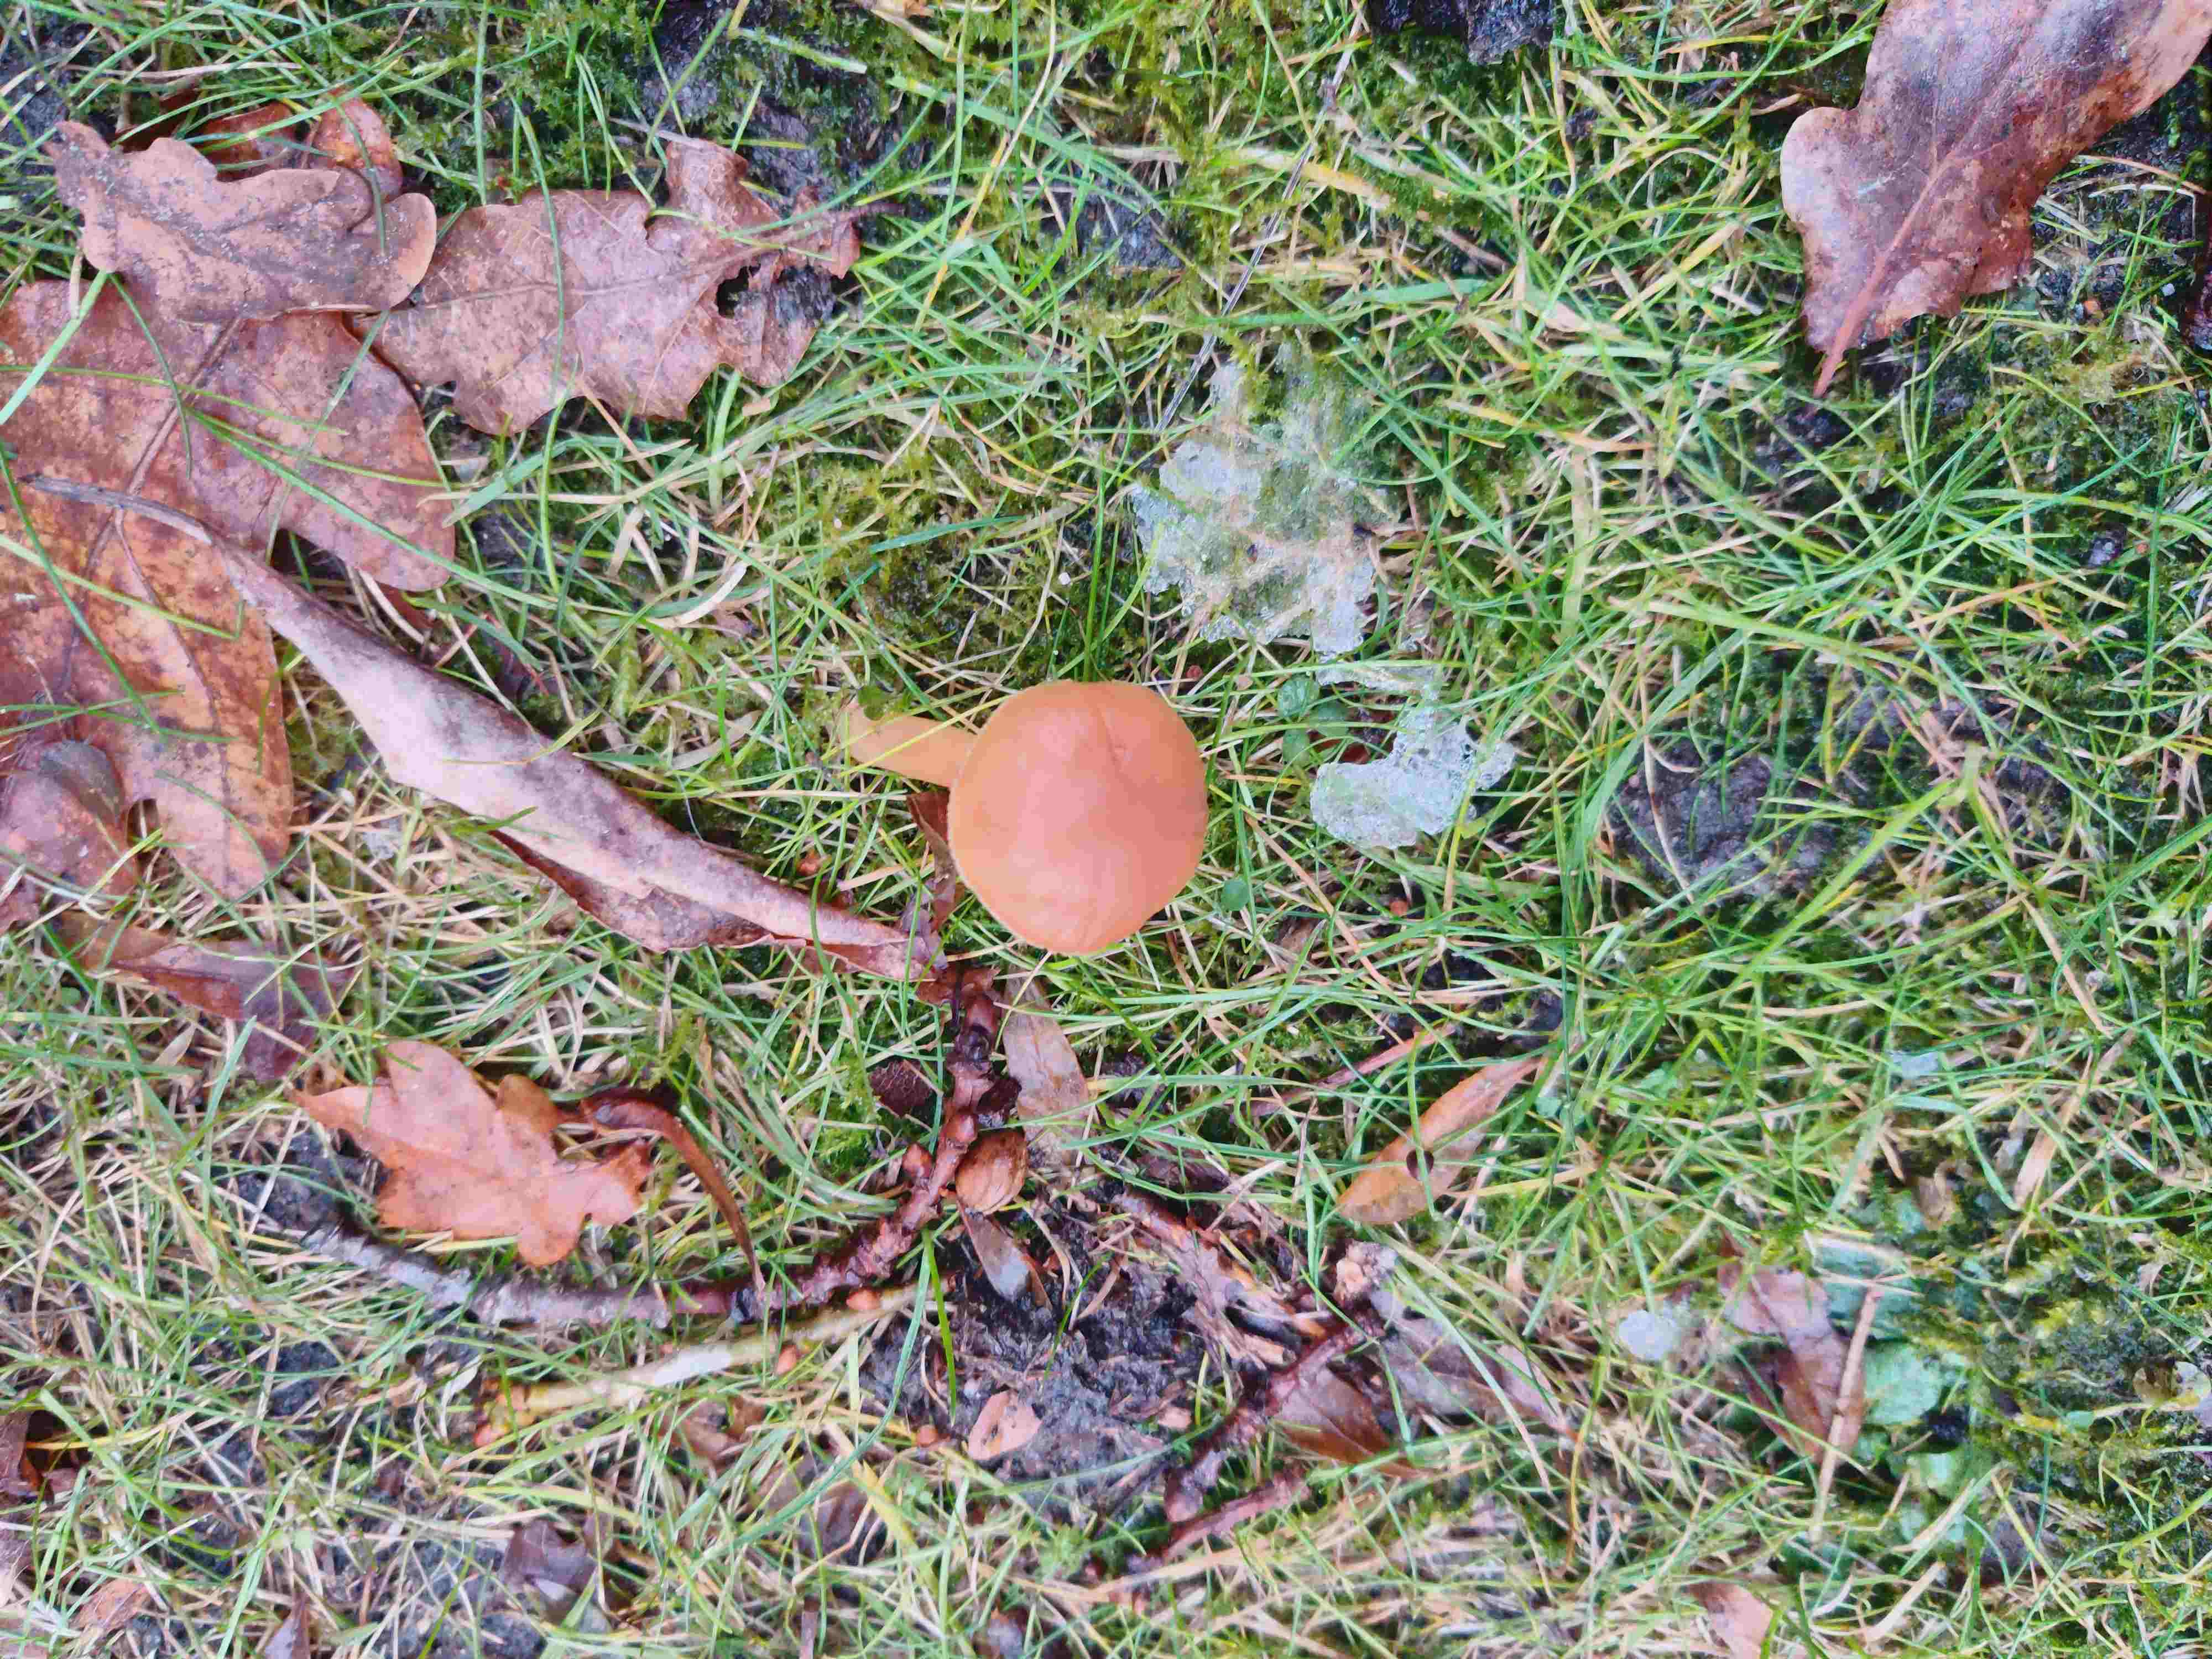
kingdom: Fungi
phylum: Basidiomycota
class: Agaricomycetes
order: Agaricales
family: Tubariaceae
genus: Tubaria
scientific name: Tubaria furfuracea
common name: kliddet fnughat
